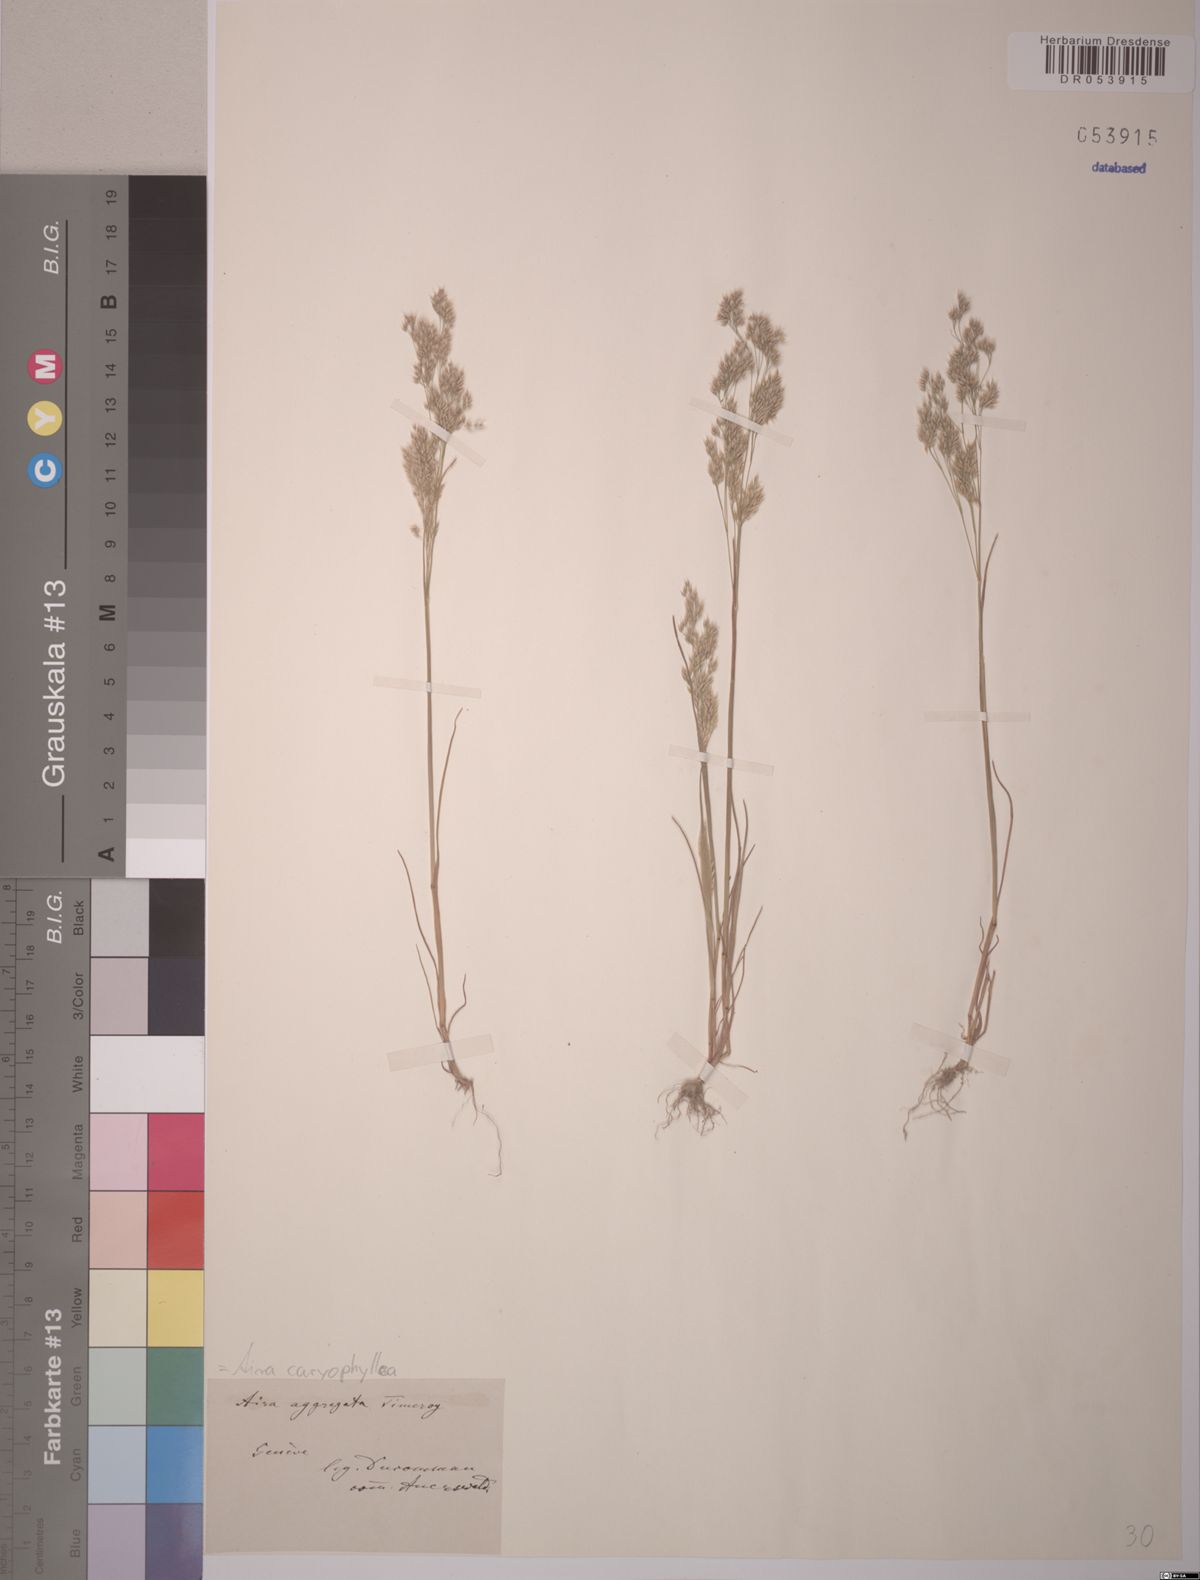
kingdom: Plantae
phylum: Tracheophyta
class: Liliopsida
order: Poales
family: Poaceae
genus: Aira
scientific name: Aira caryophyllea
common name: Silver hairgrass
